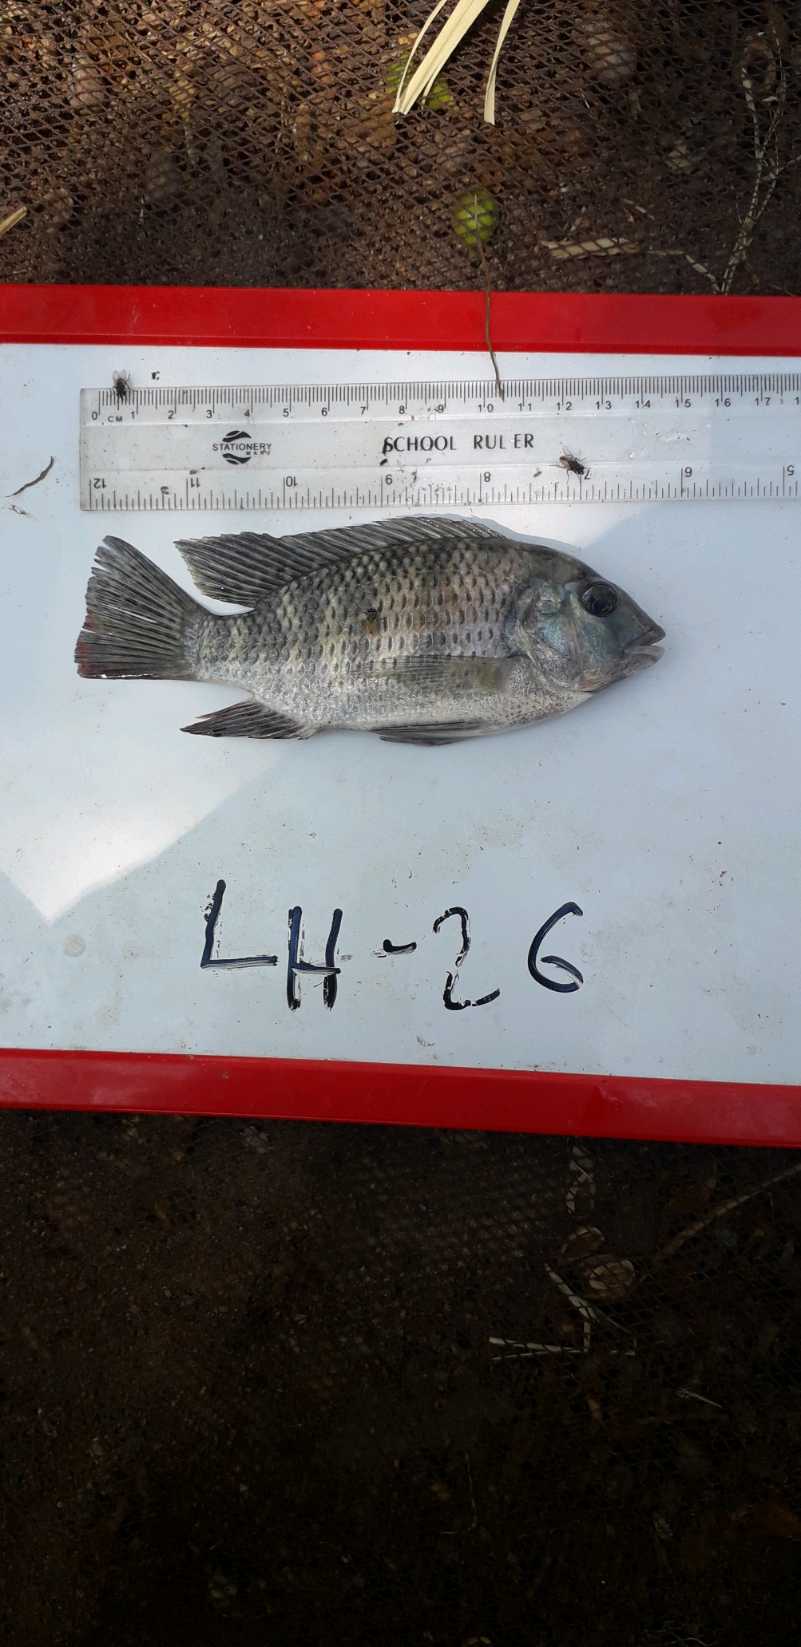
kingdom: Animalia
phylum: Chordata
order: Perciformes
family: Cichlidae
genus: Coptodon
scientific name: Coptodon rendalli
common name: Redbreast tilapia
